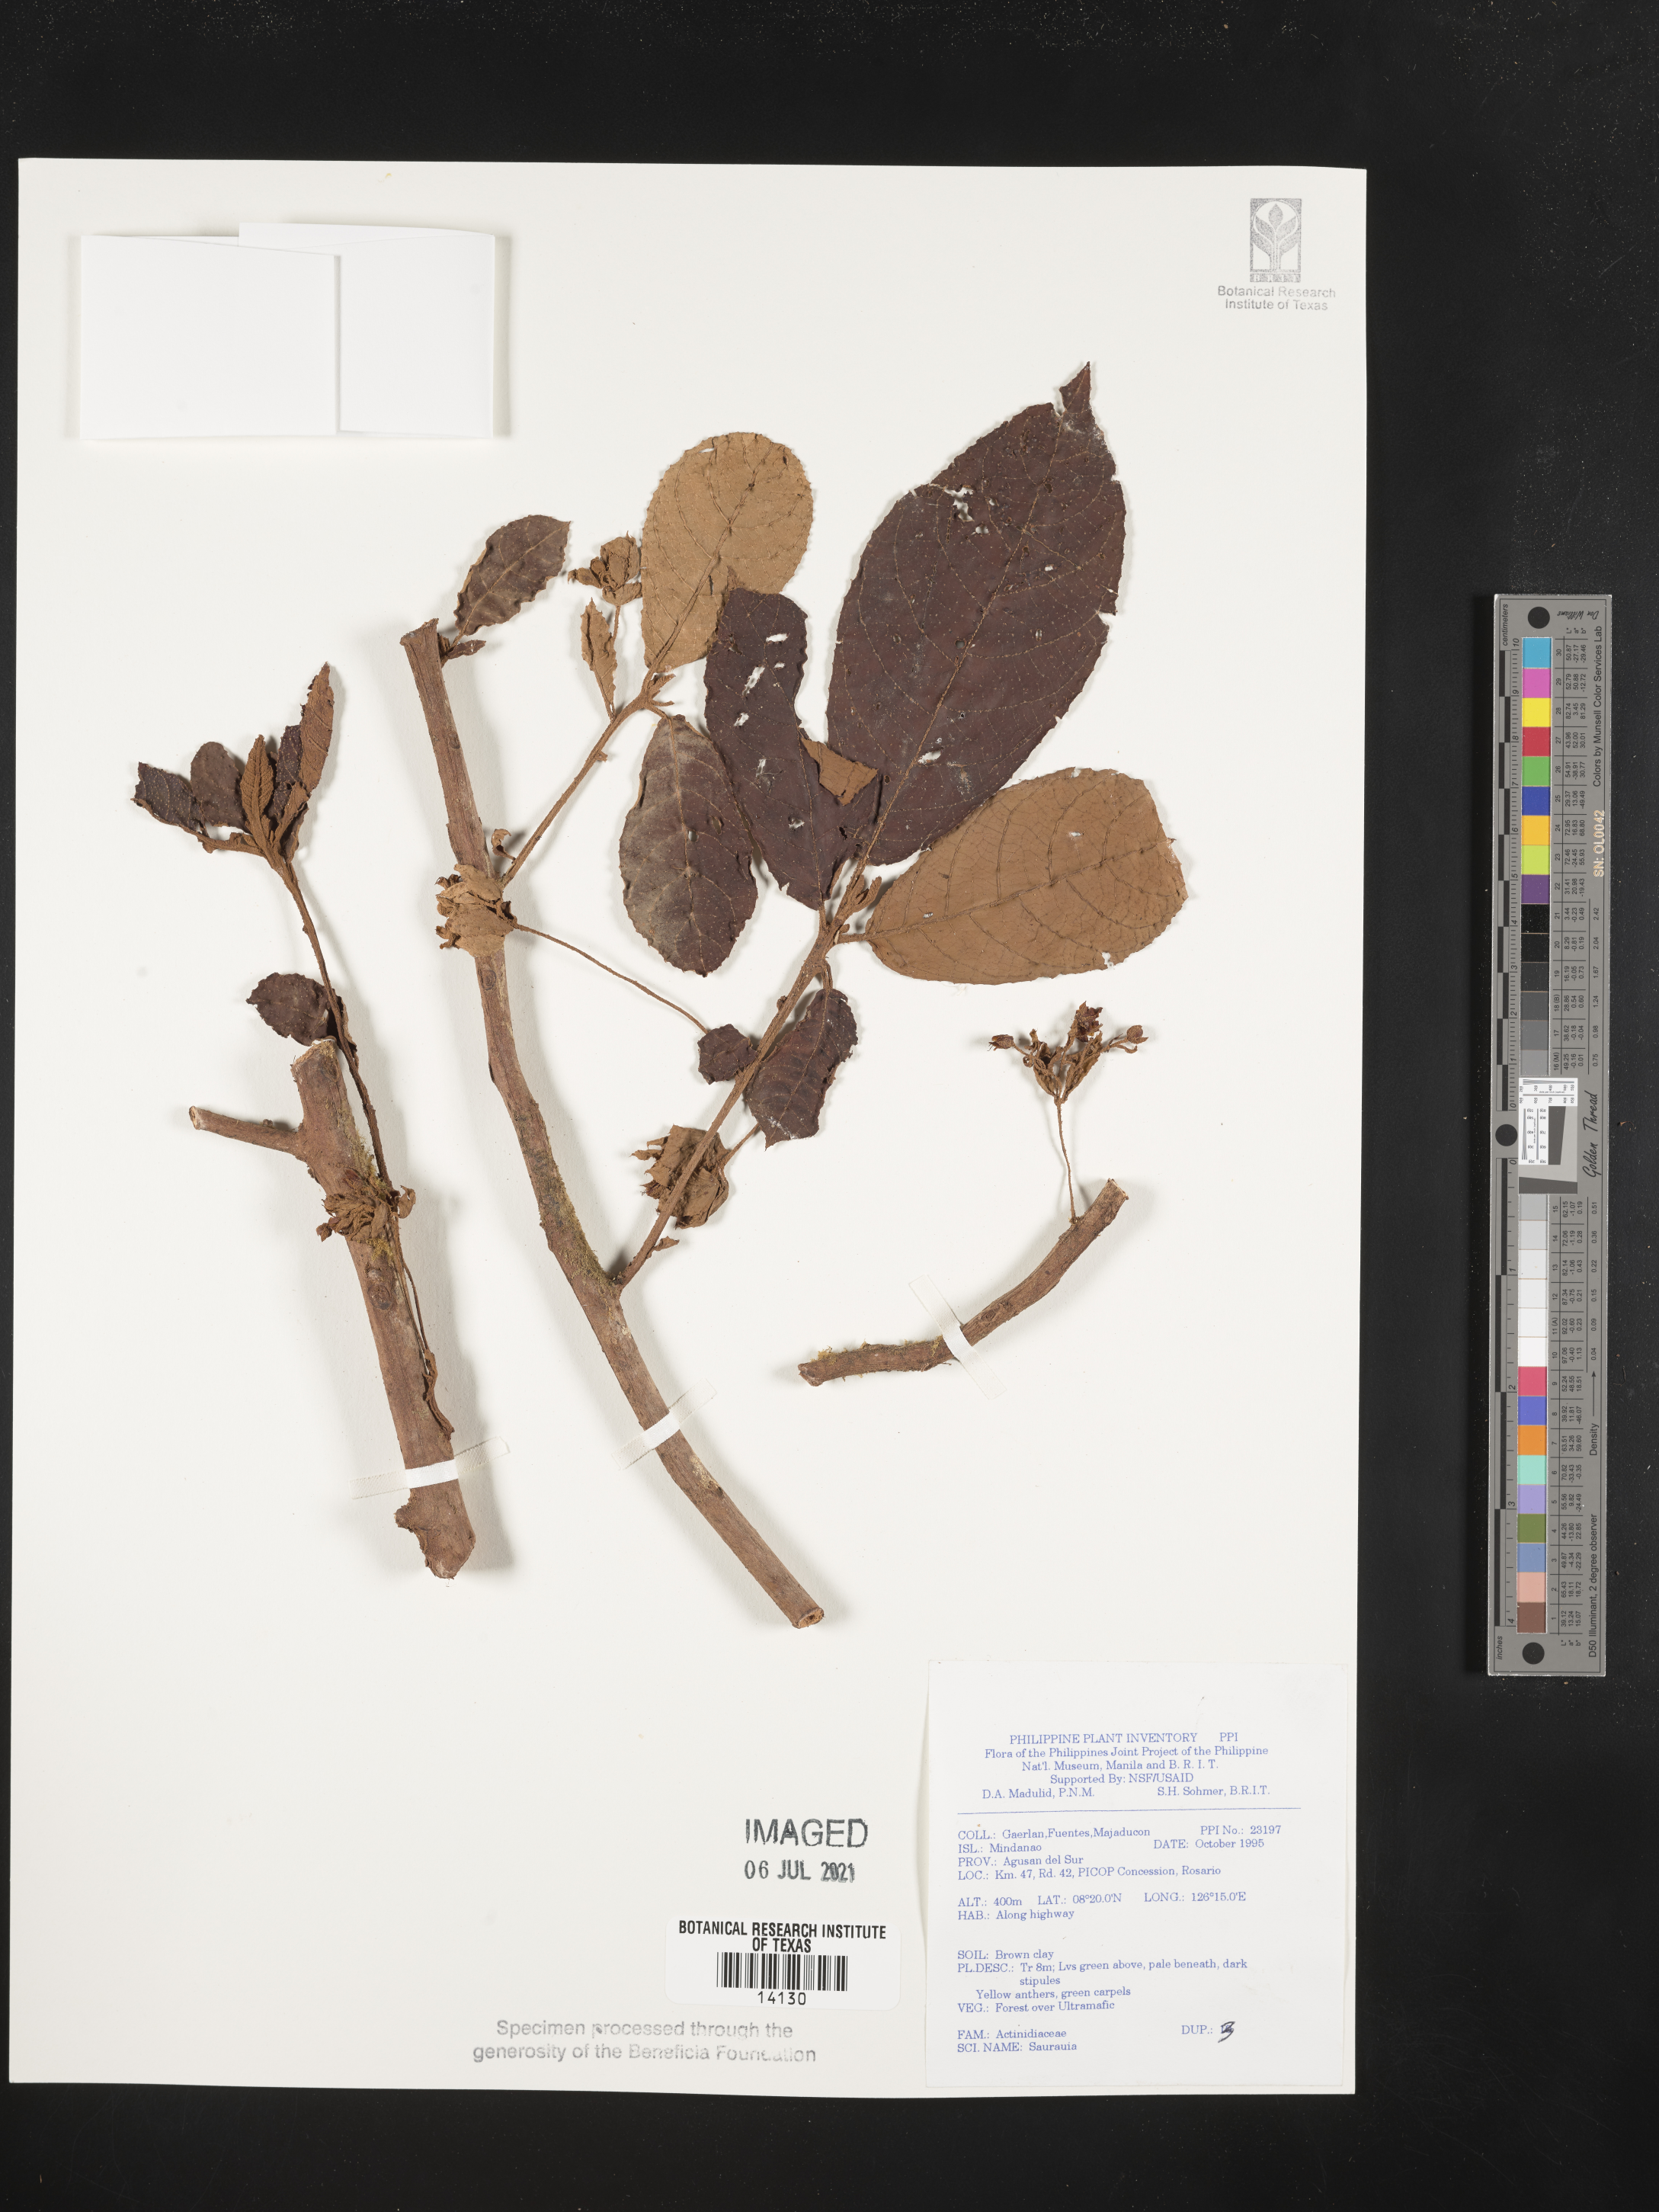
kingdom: Plantae
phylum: Tracheophyta
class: Magnoliopsida
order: Ericales
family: Actinidiaceae
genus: Saurauia
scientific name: Saurauia
